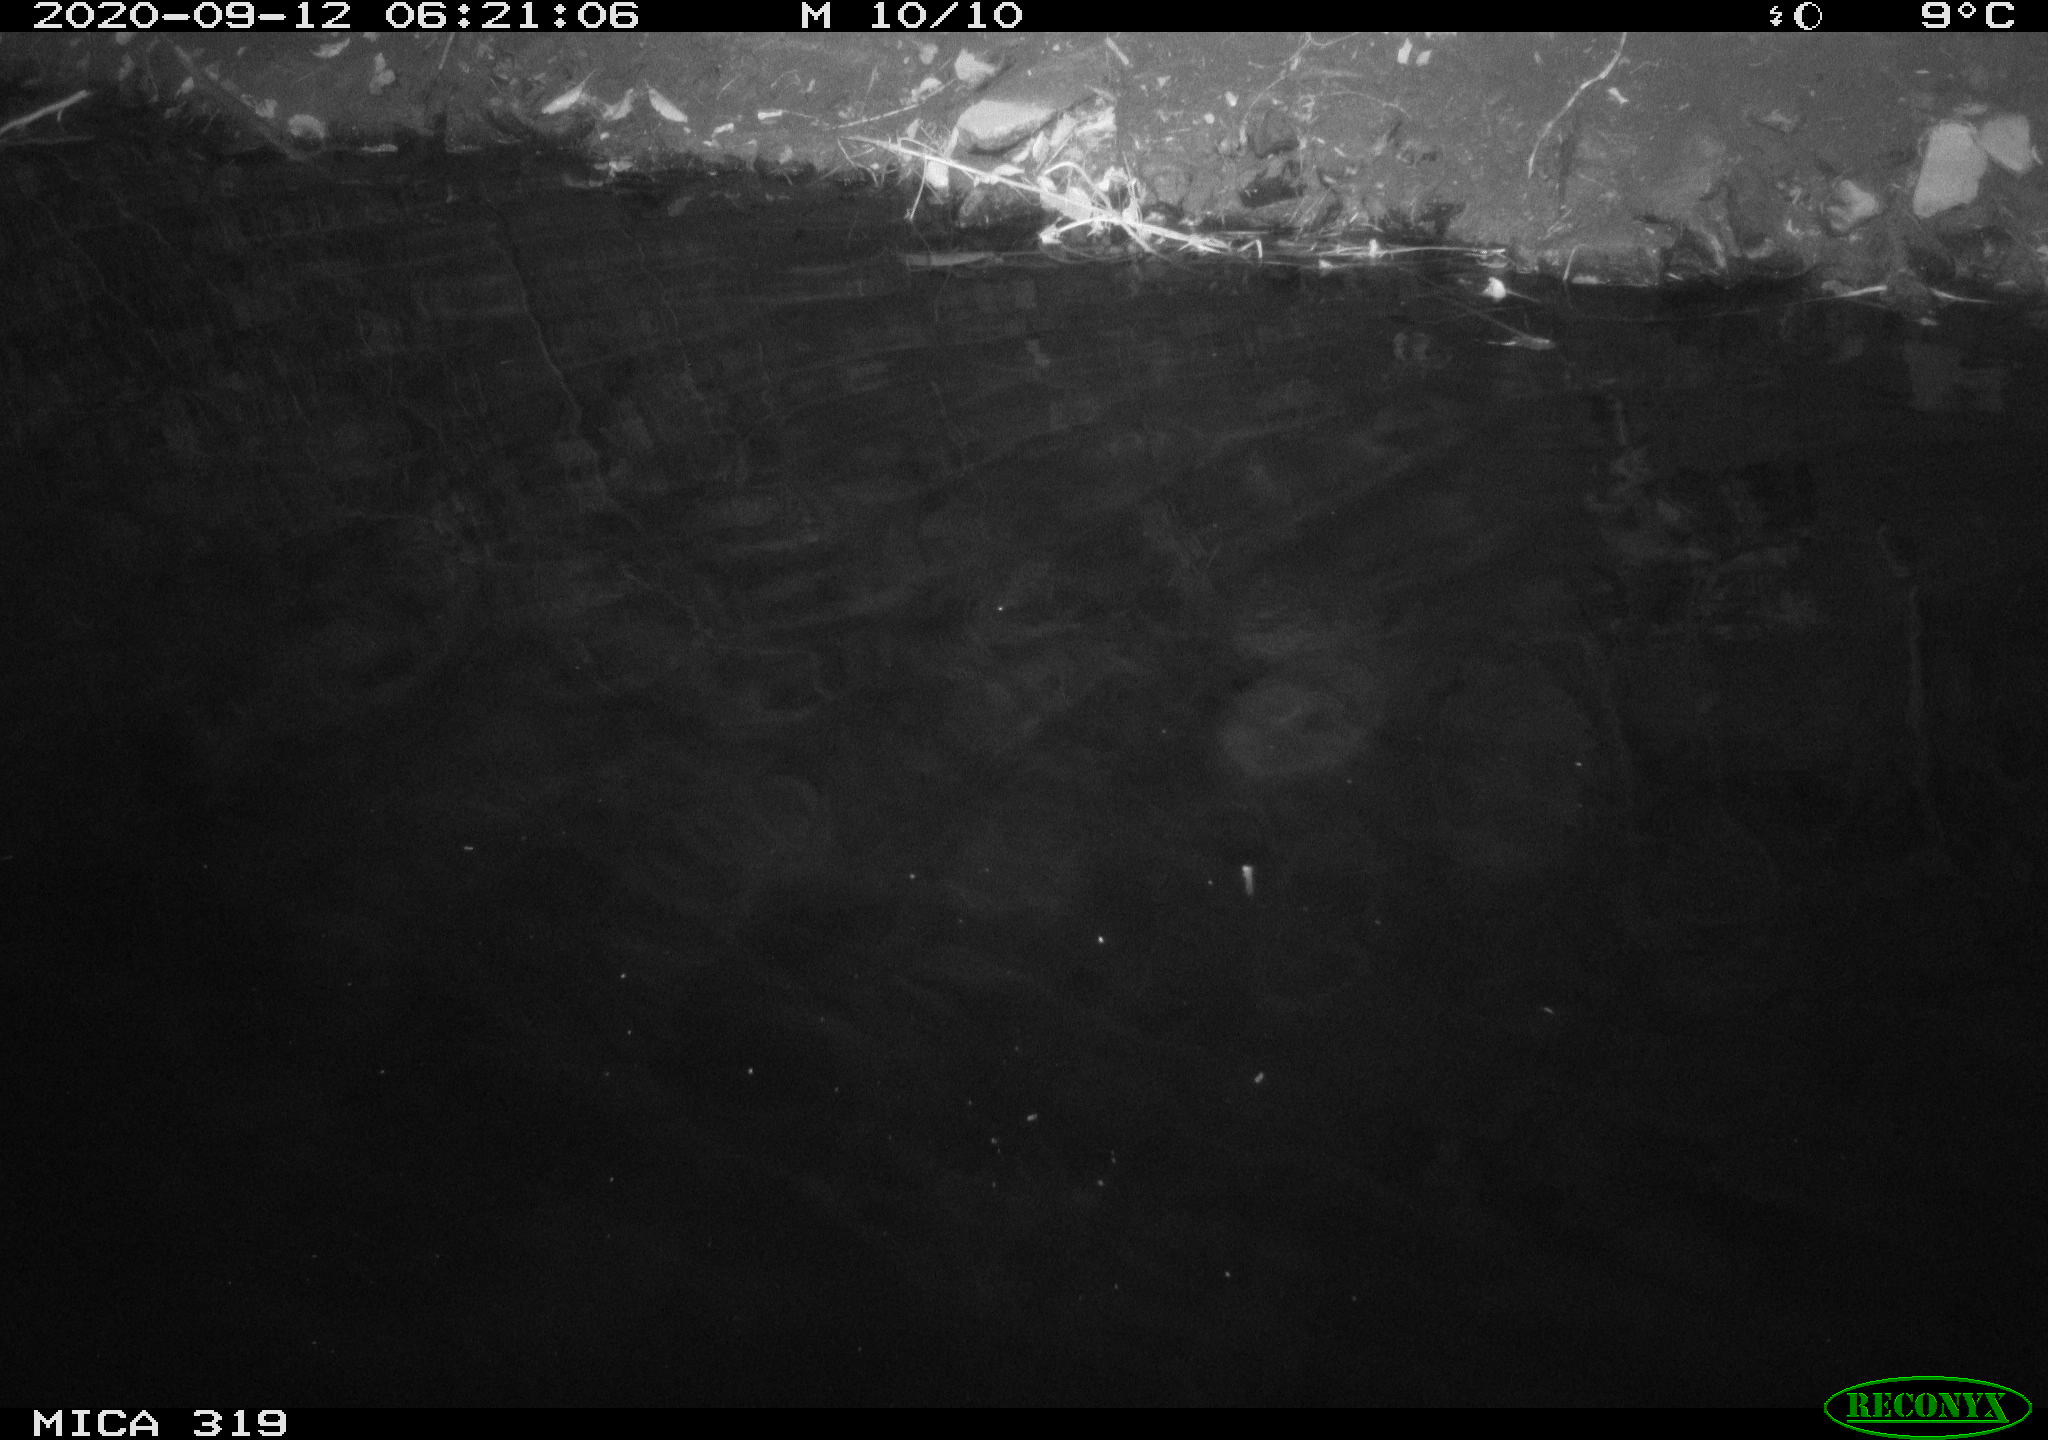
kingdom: Animalia
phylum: Chordata
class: Aves
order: Anseriformes
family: Anatidae
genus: Anas
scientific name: Anas platyrhynchos
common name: Mallard
